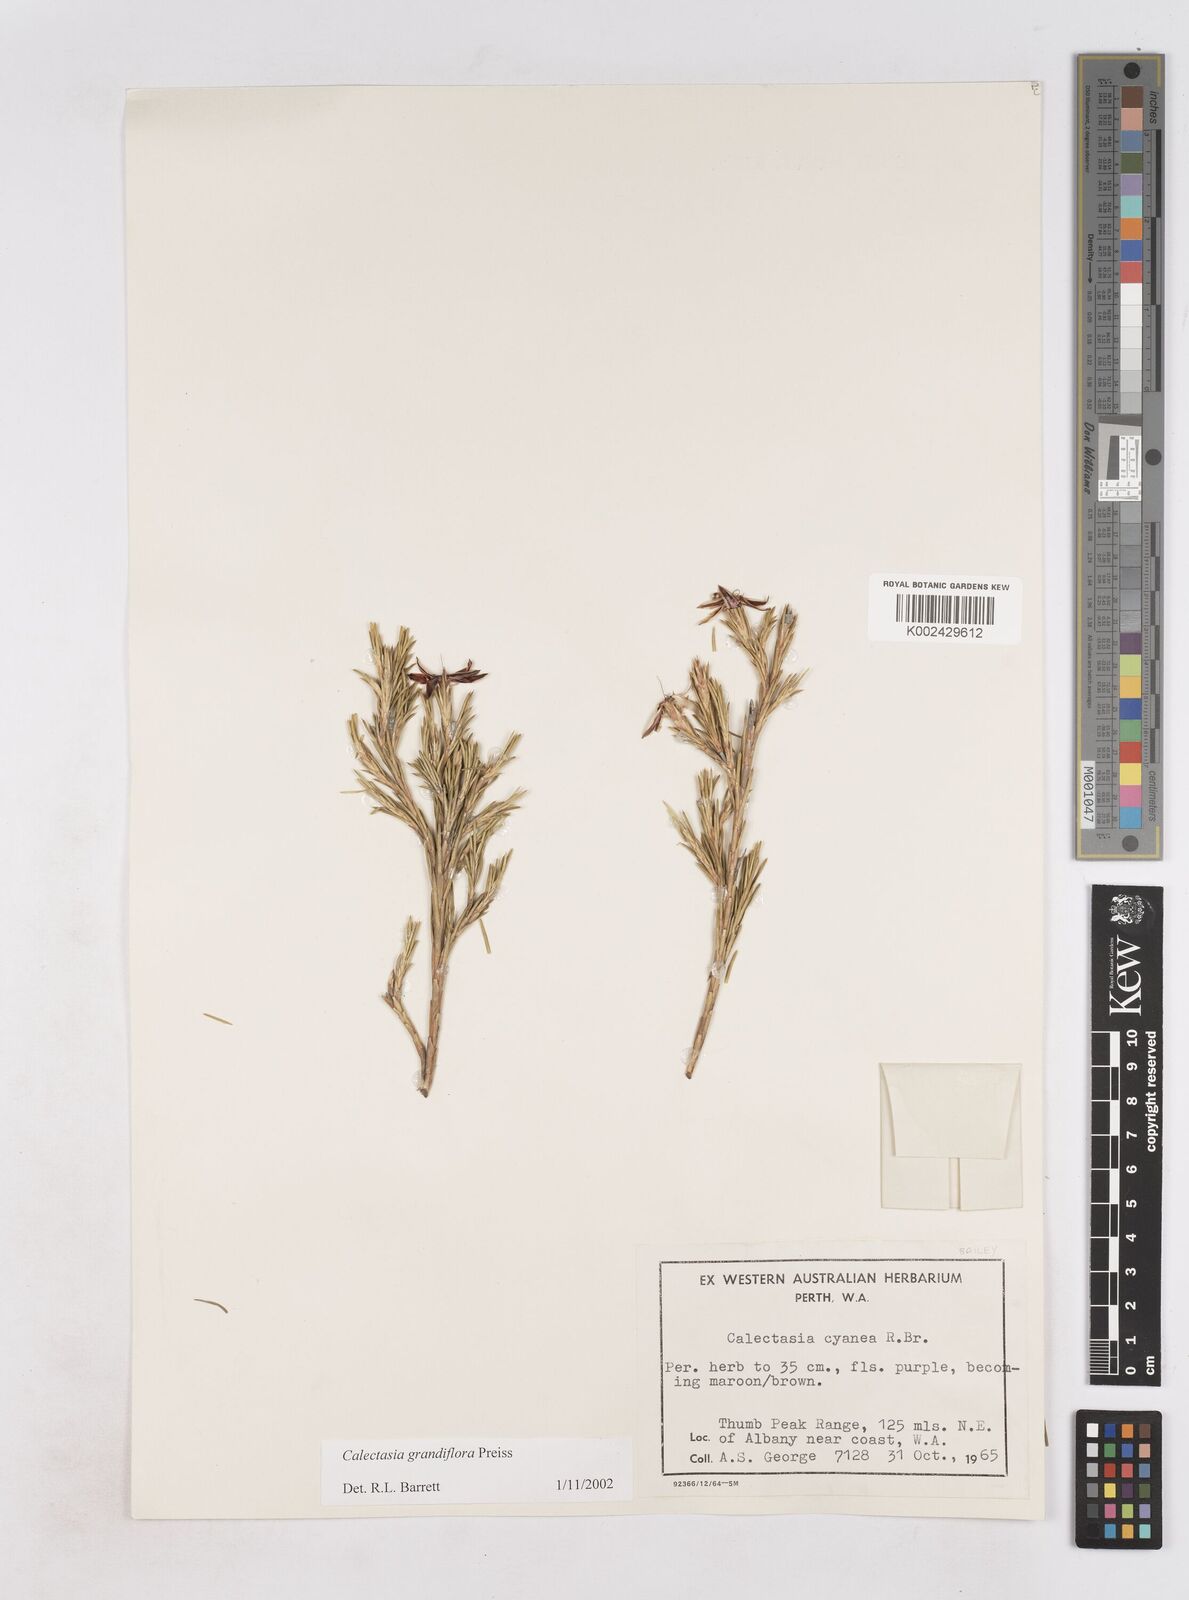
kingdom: Plantae
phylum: Tracheophyta
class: Liliopsida
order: Arecales
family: Dasypogonaceae
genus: Calectasia
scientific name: Calectasia grandiflora
